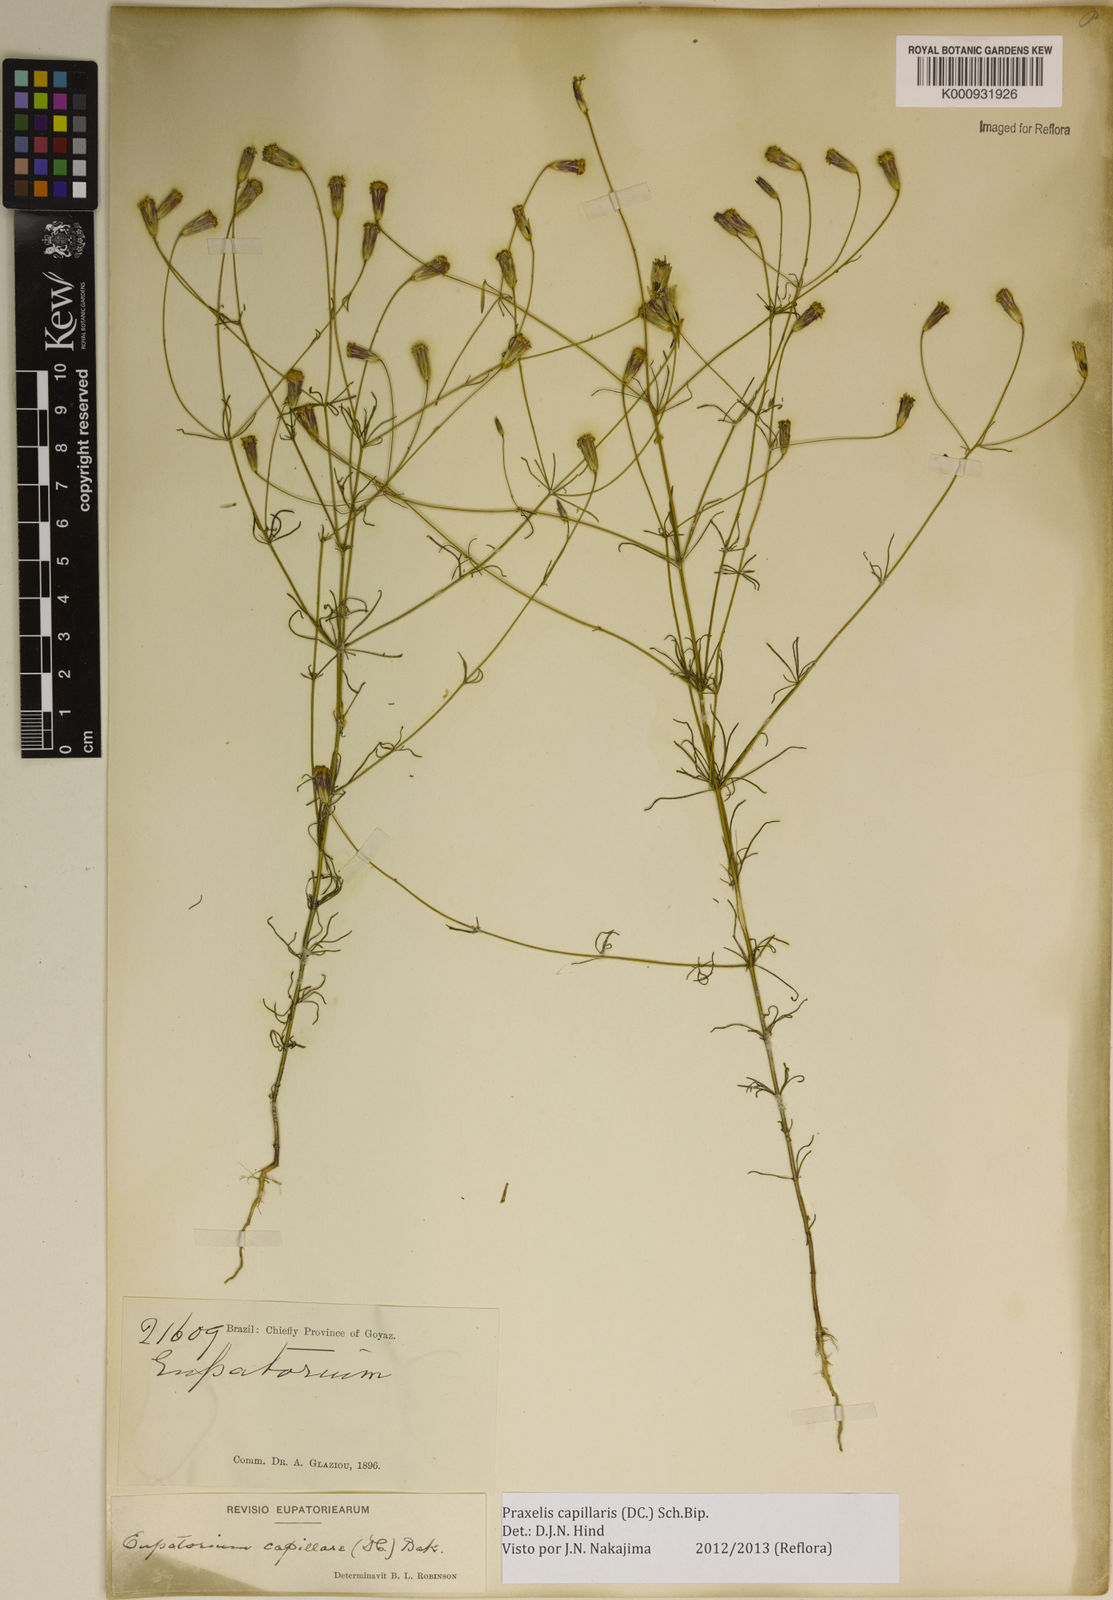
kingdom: Plantae
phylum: Tracheophyta
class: Magnoliopsida
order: Asterales
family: Asteraceae
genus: Praxelis
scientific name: Praxelis capillaris
